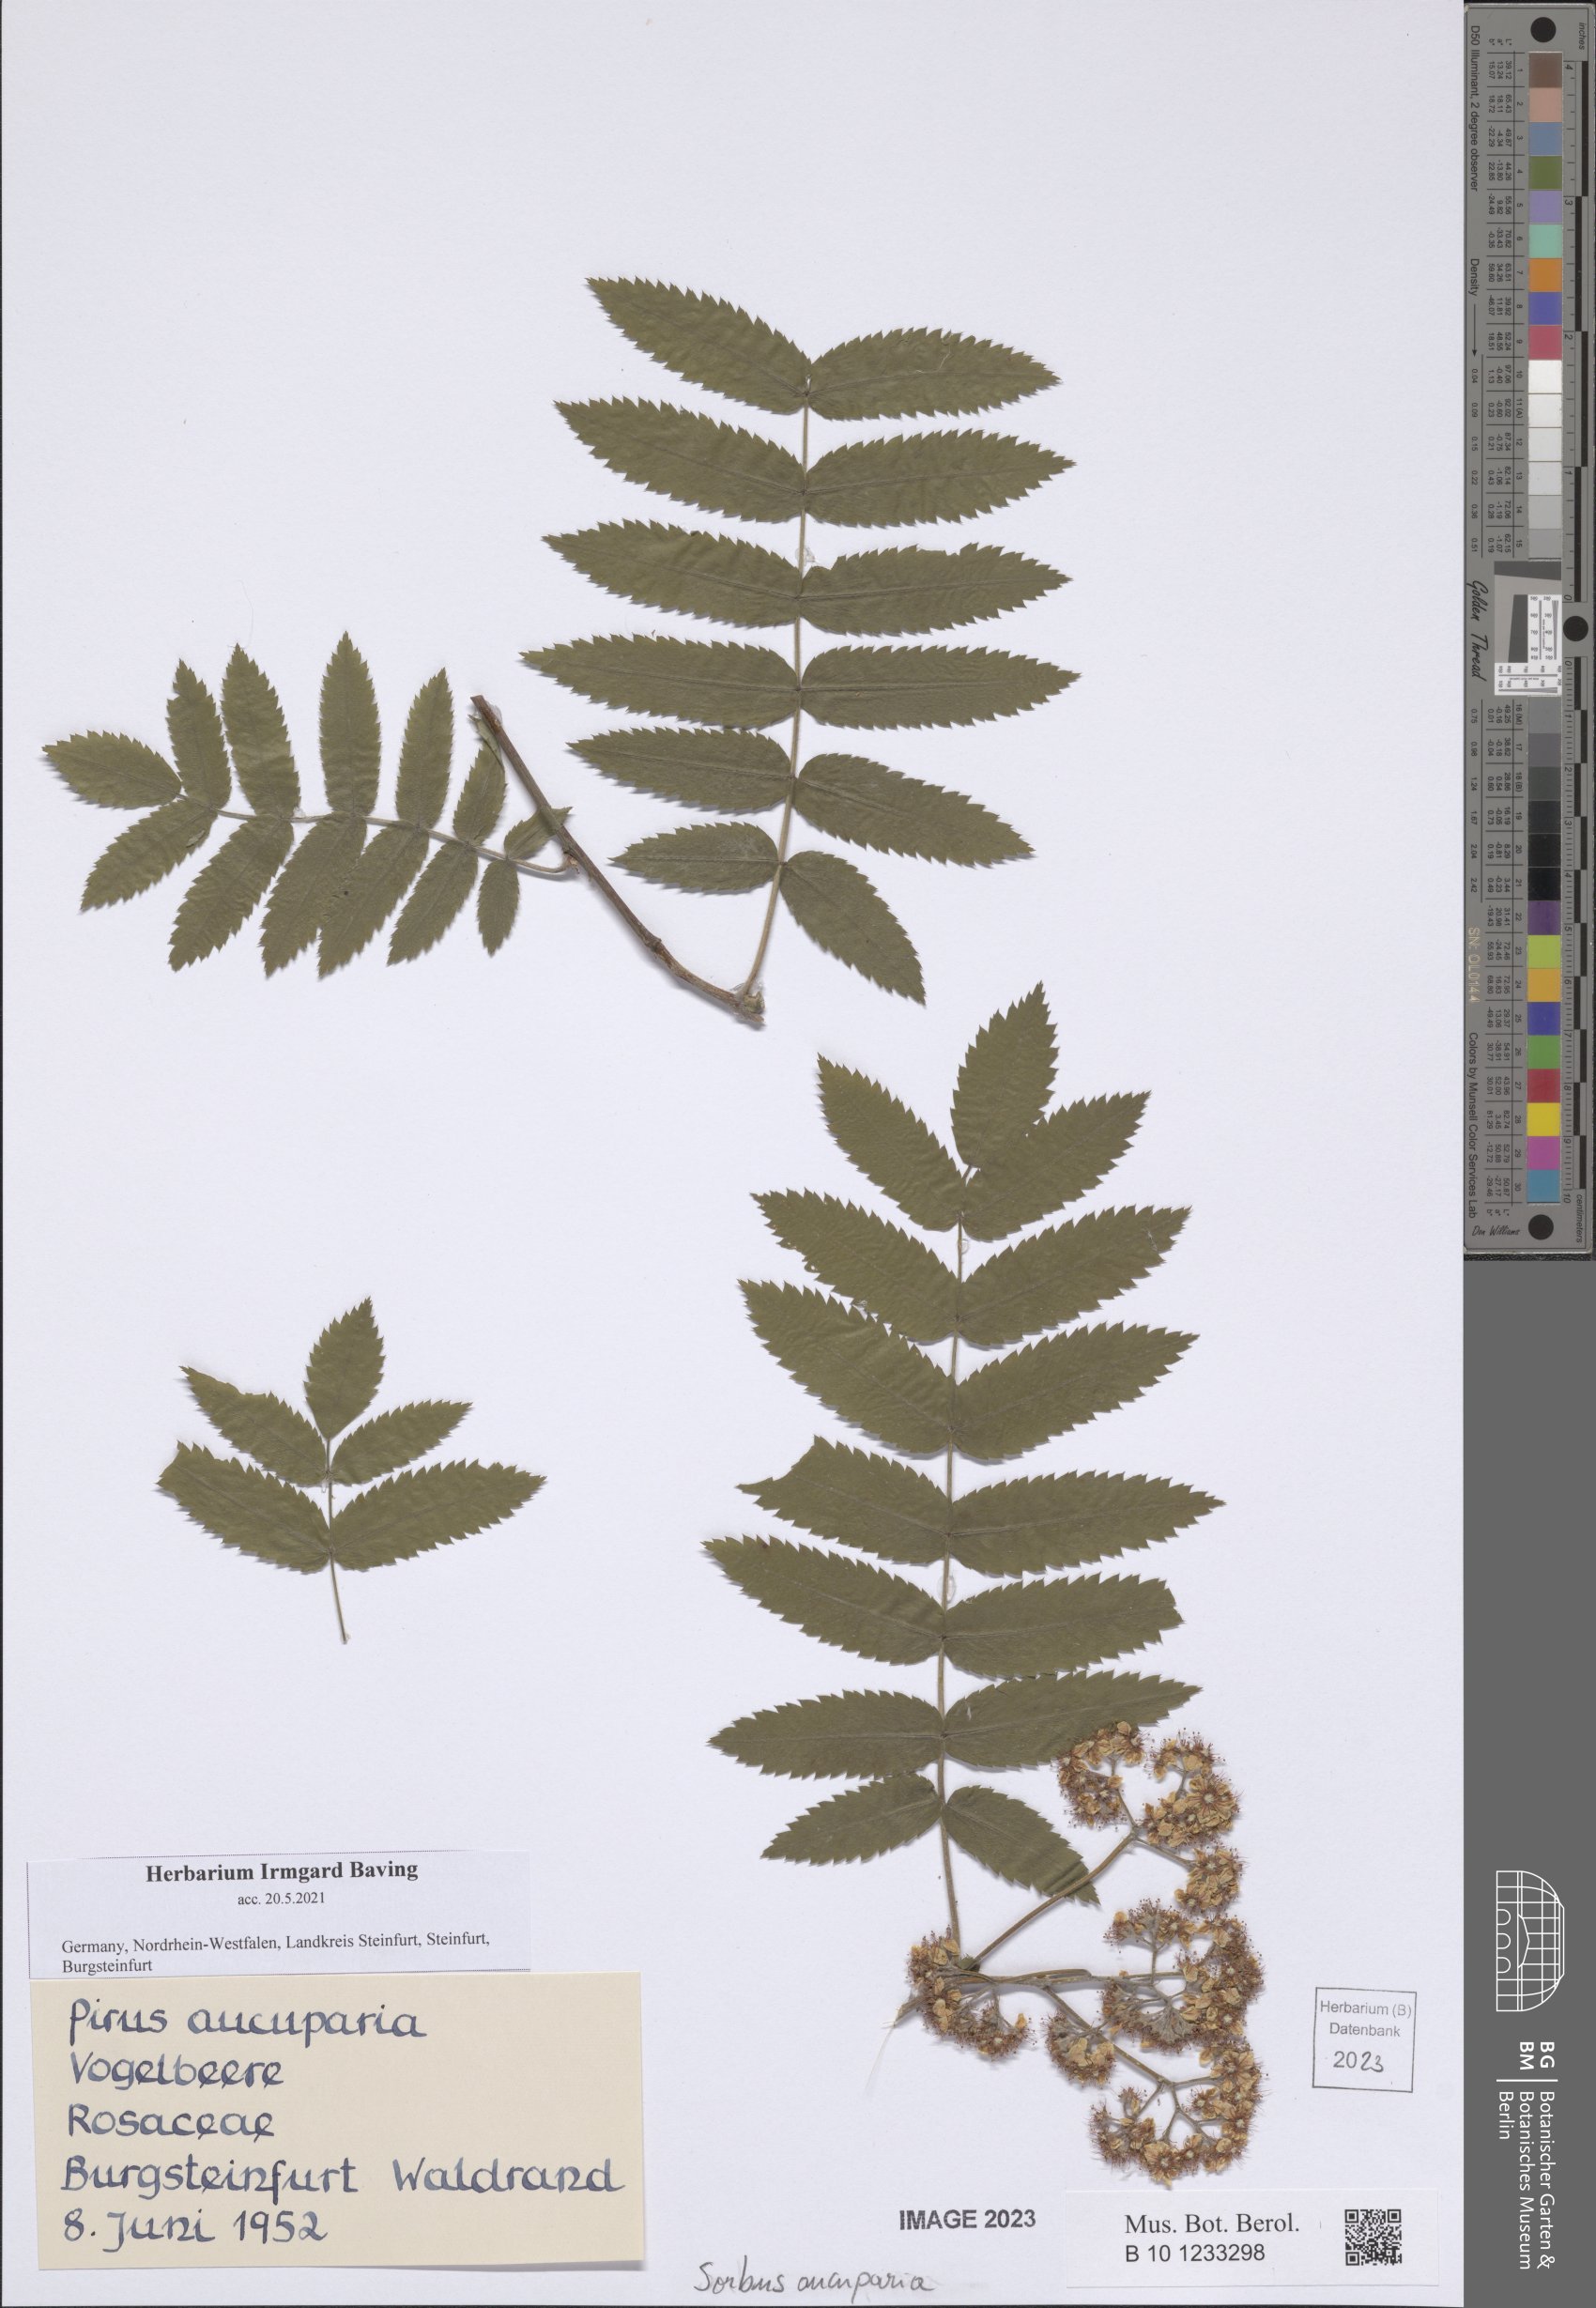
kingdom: Plantae
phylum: Tracheophyta
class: Magnoliopsida
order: Rosales
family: Rosaceae
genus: Sorbus
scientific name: Sorbus aucuparia
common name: Rowan
